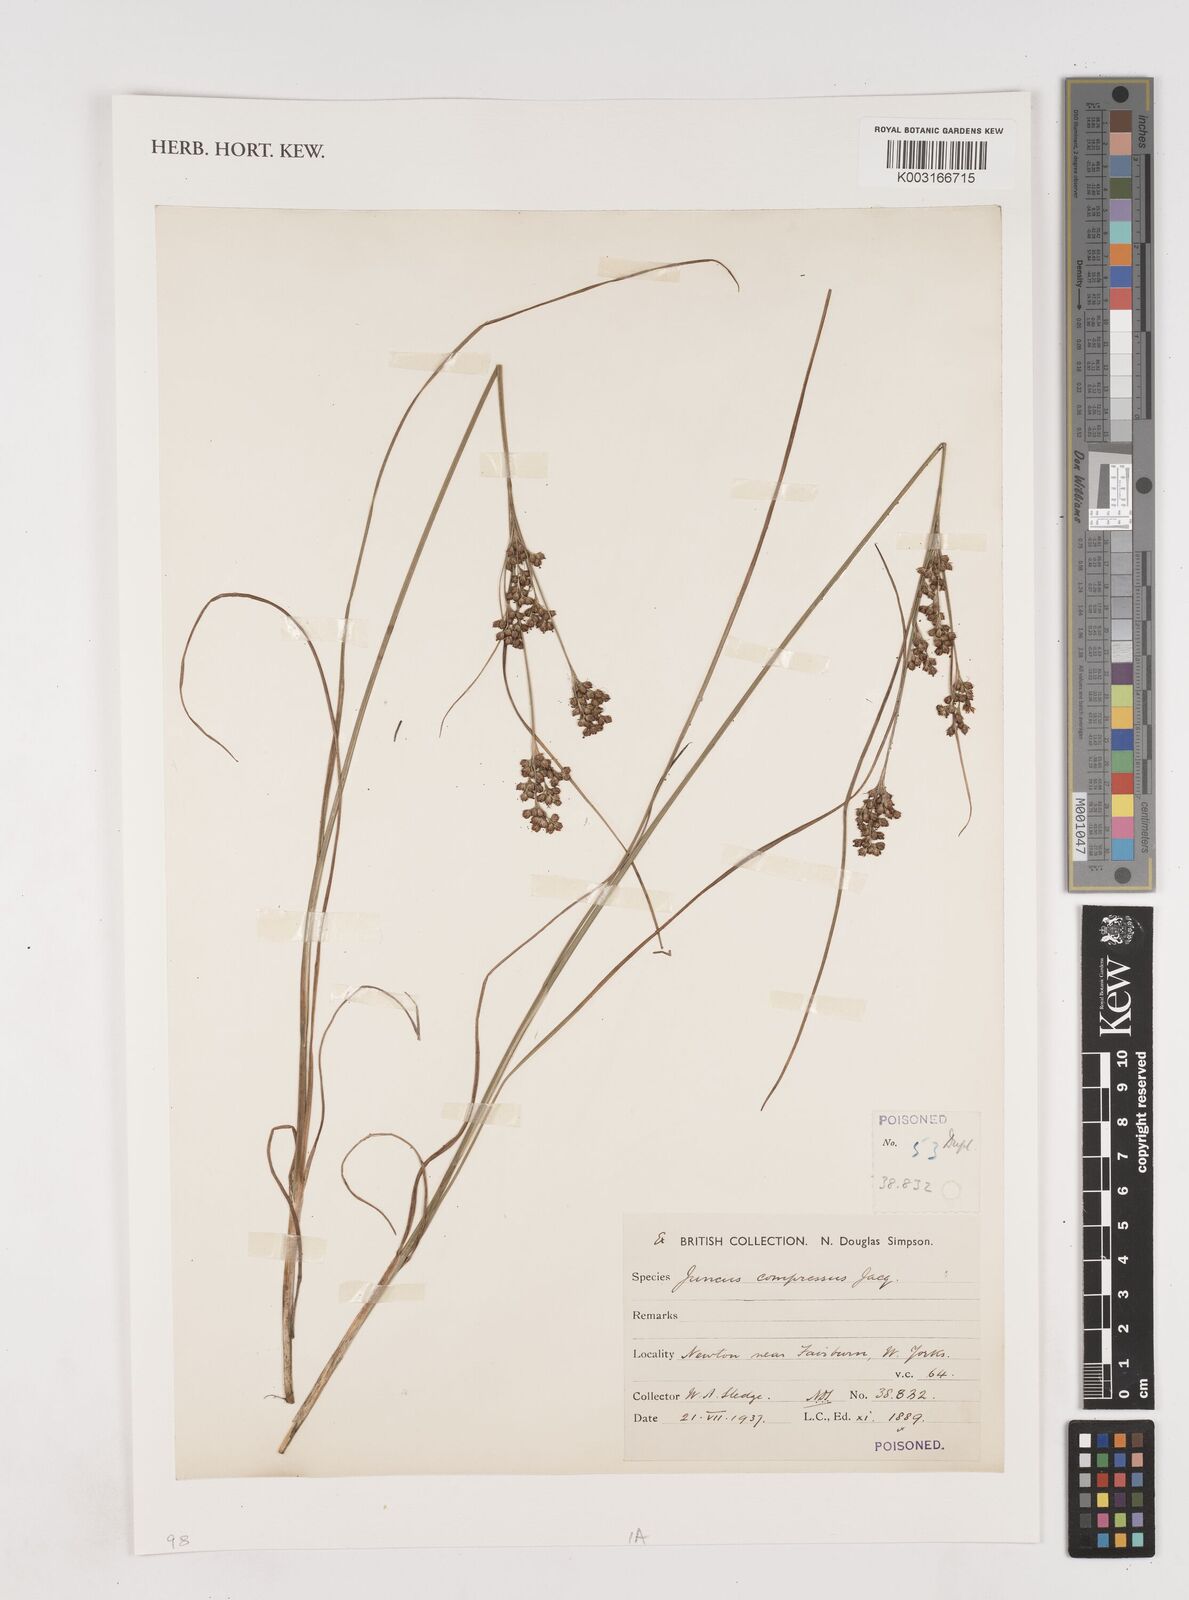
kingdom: Plantae
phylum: Tracheophyta
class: Liliopsida
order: Poales
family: Juncaceae
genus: Juncus
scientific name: Juncus compressus
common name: Round-fruited rush
